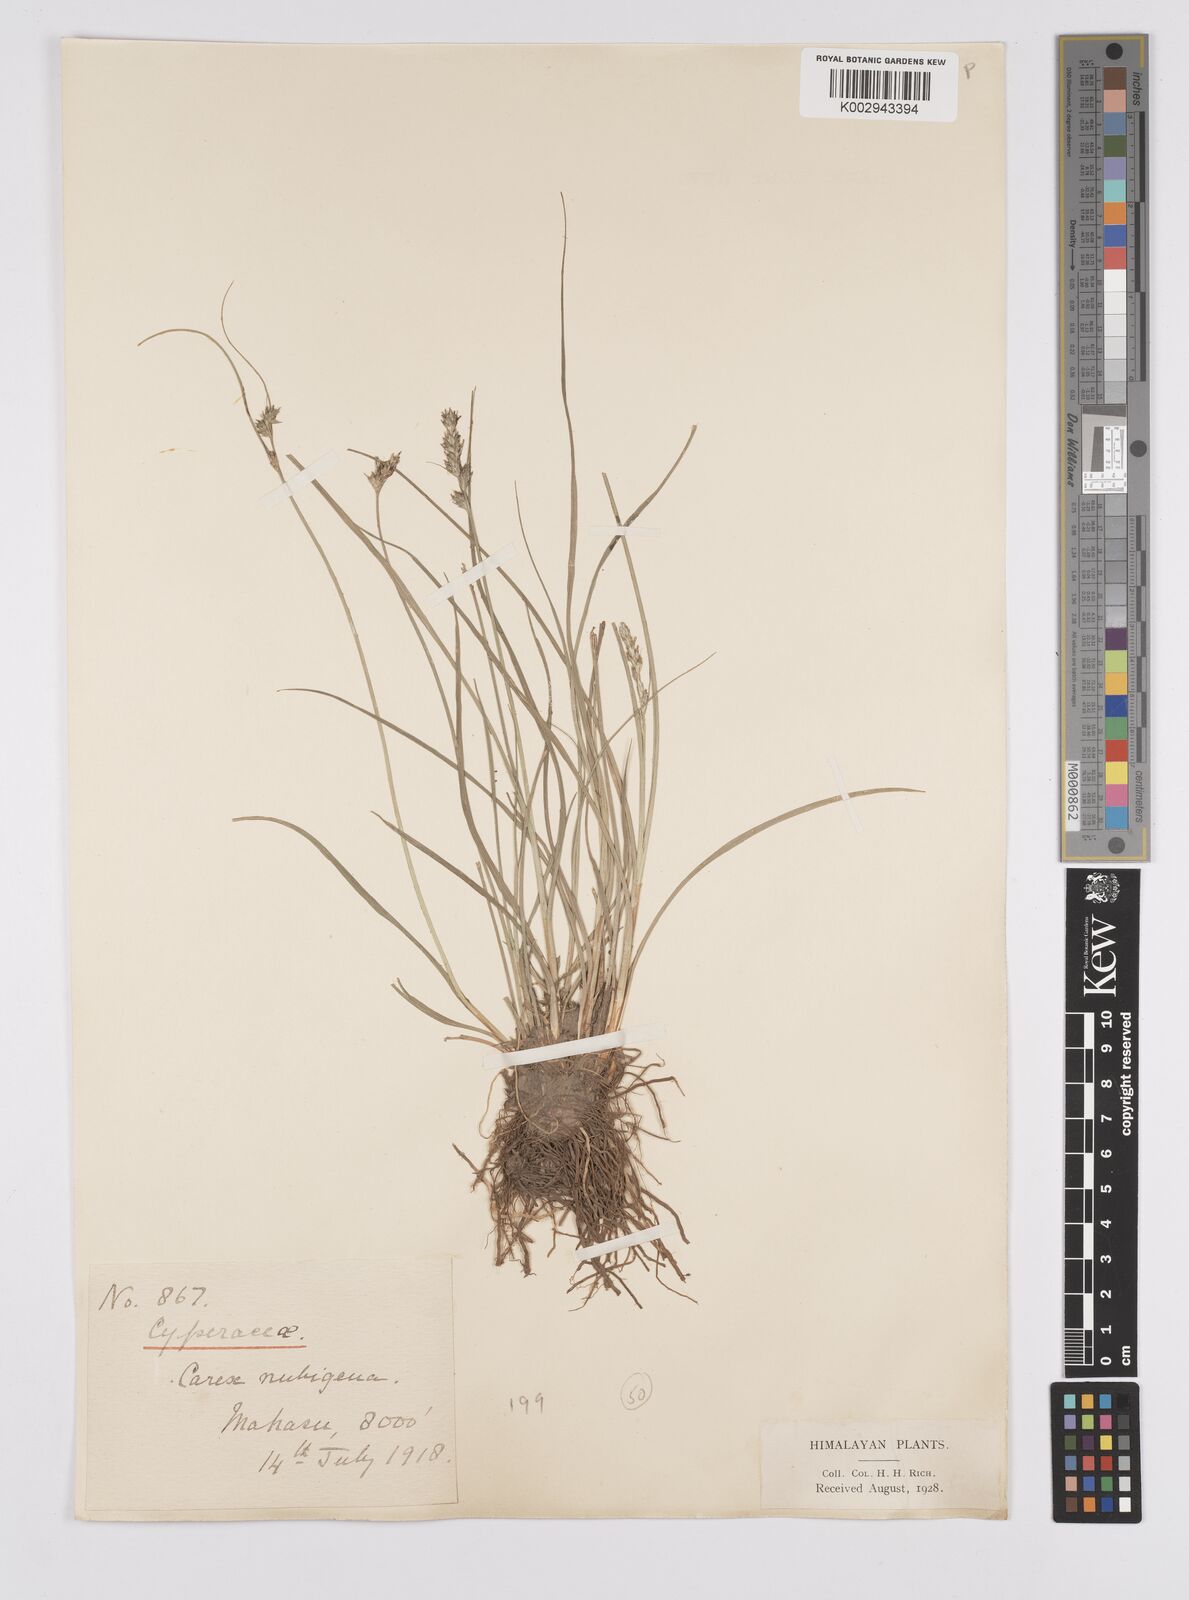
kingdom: Plantae
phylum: Tracheophyta
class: Liliopsida
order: Poales
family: Cyperaceae
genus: Carex
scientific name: Carex nubigena
